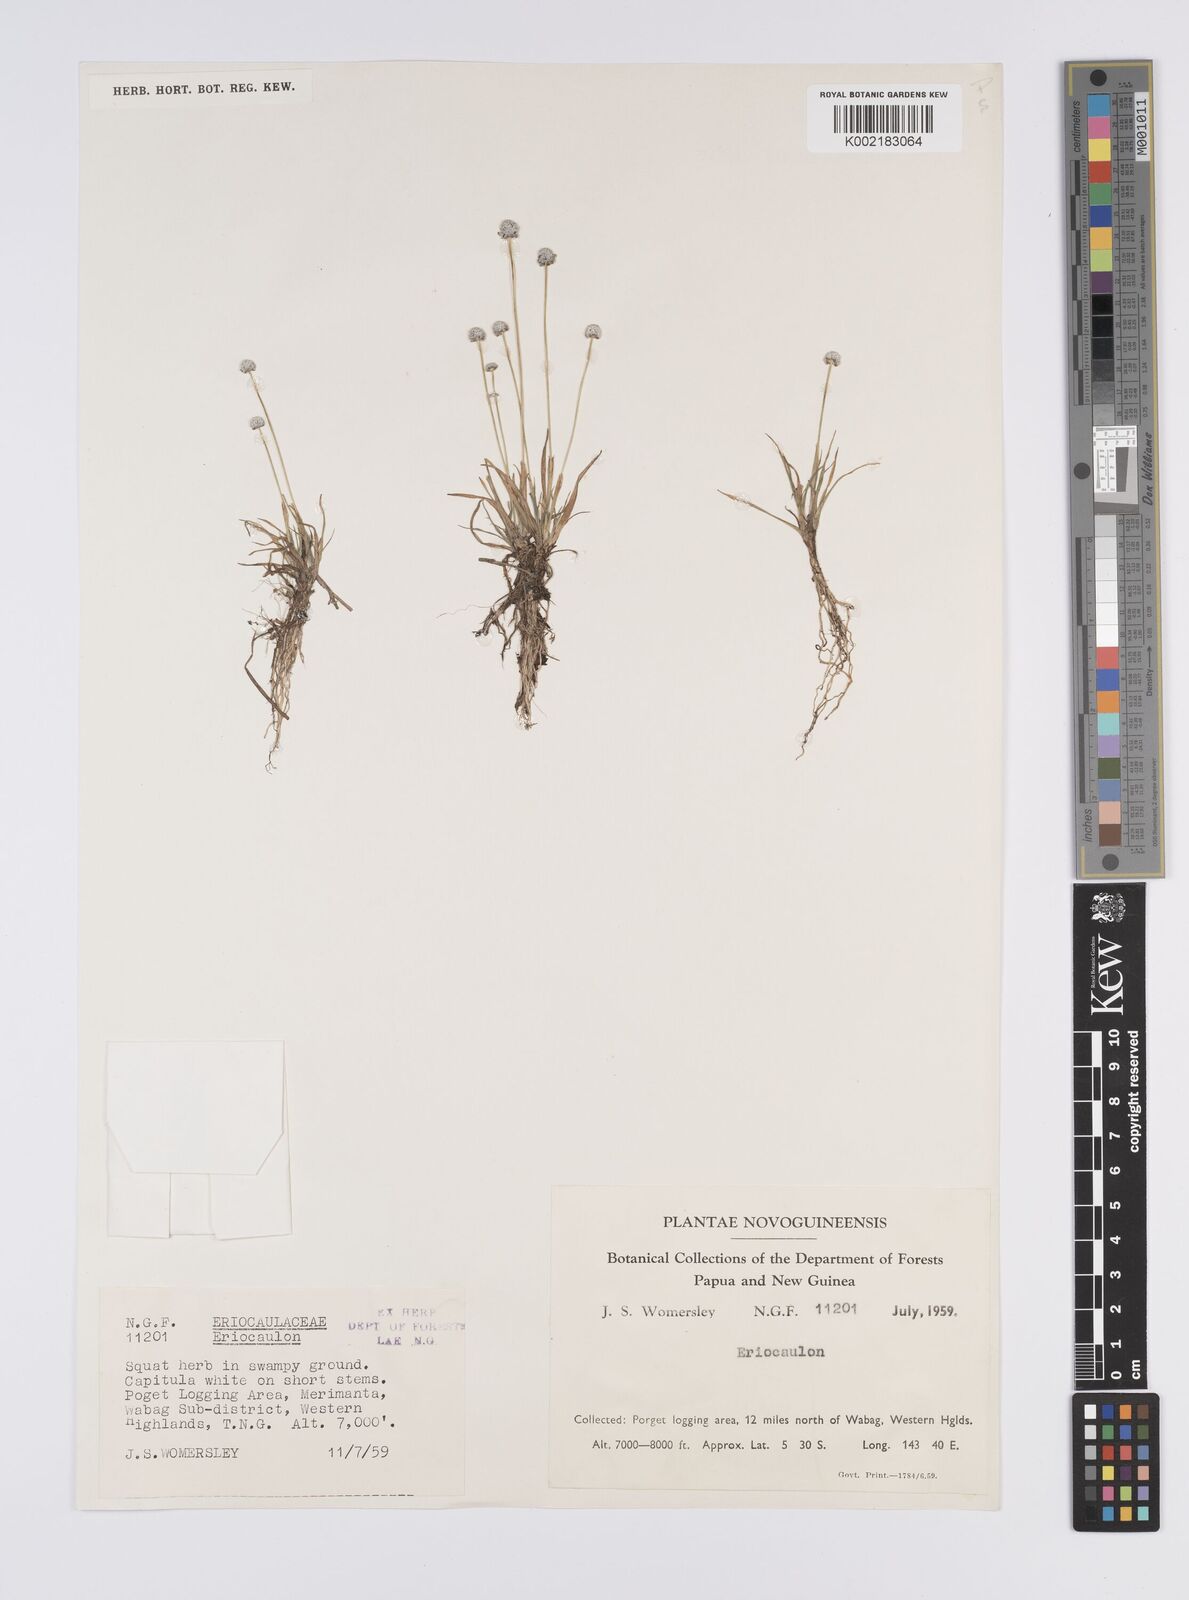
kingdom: Plantae
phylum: Tracheophyta
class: Liliopsida
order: Poales
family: Eriocaulaceae
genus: Eriocaulon
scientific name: Eriocaulon
